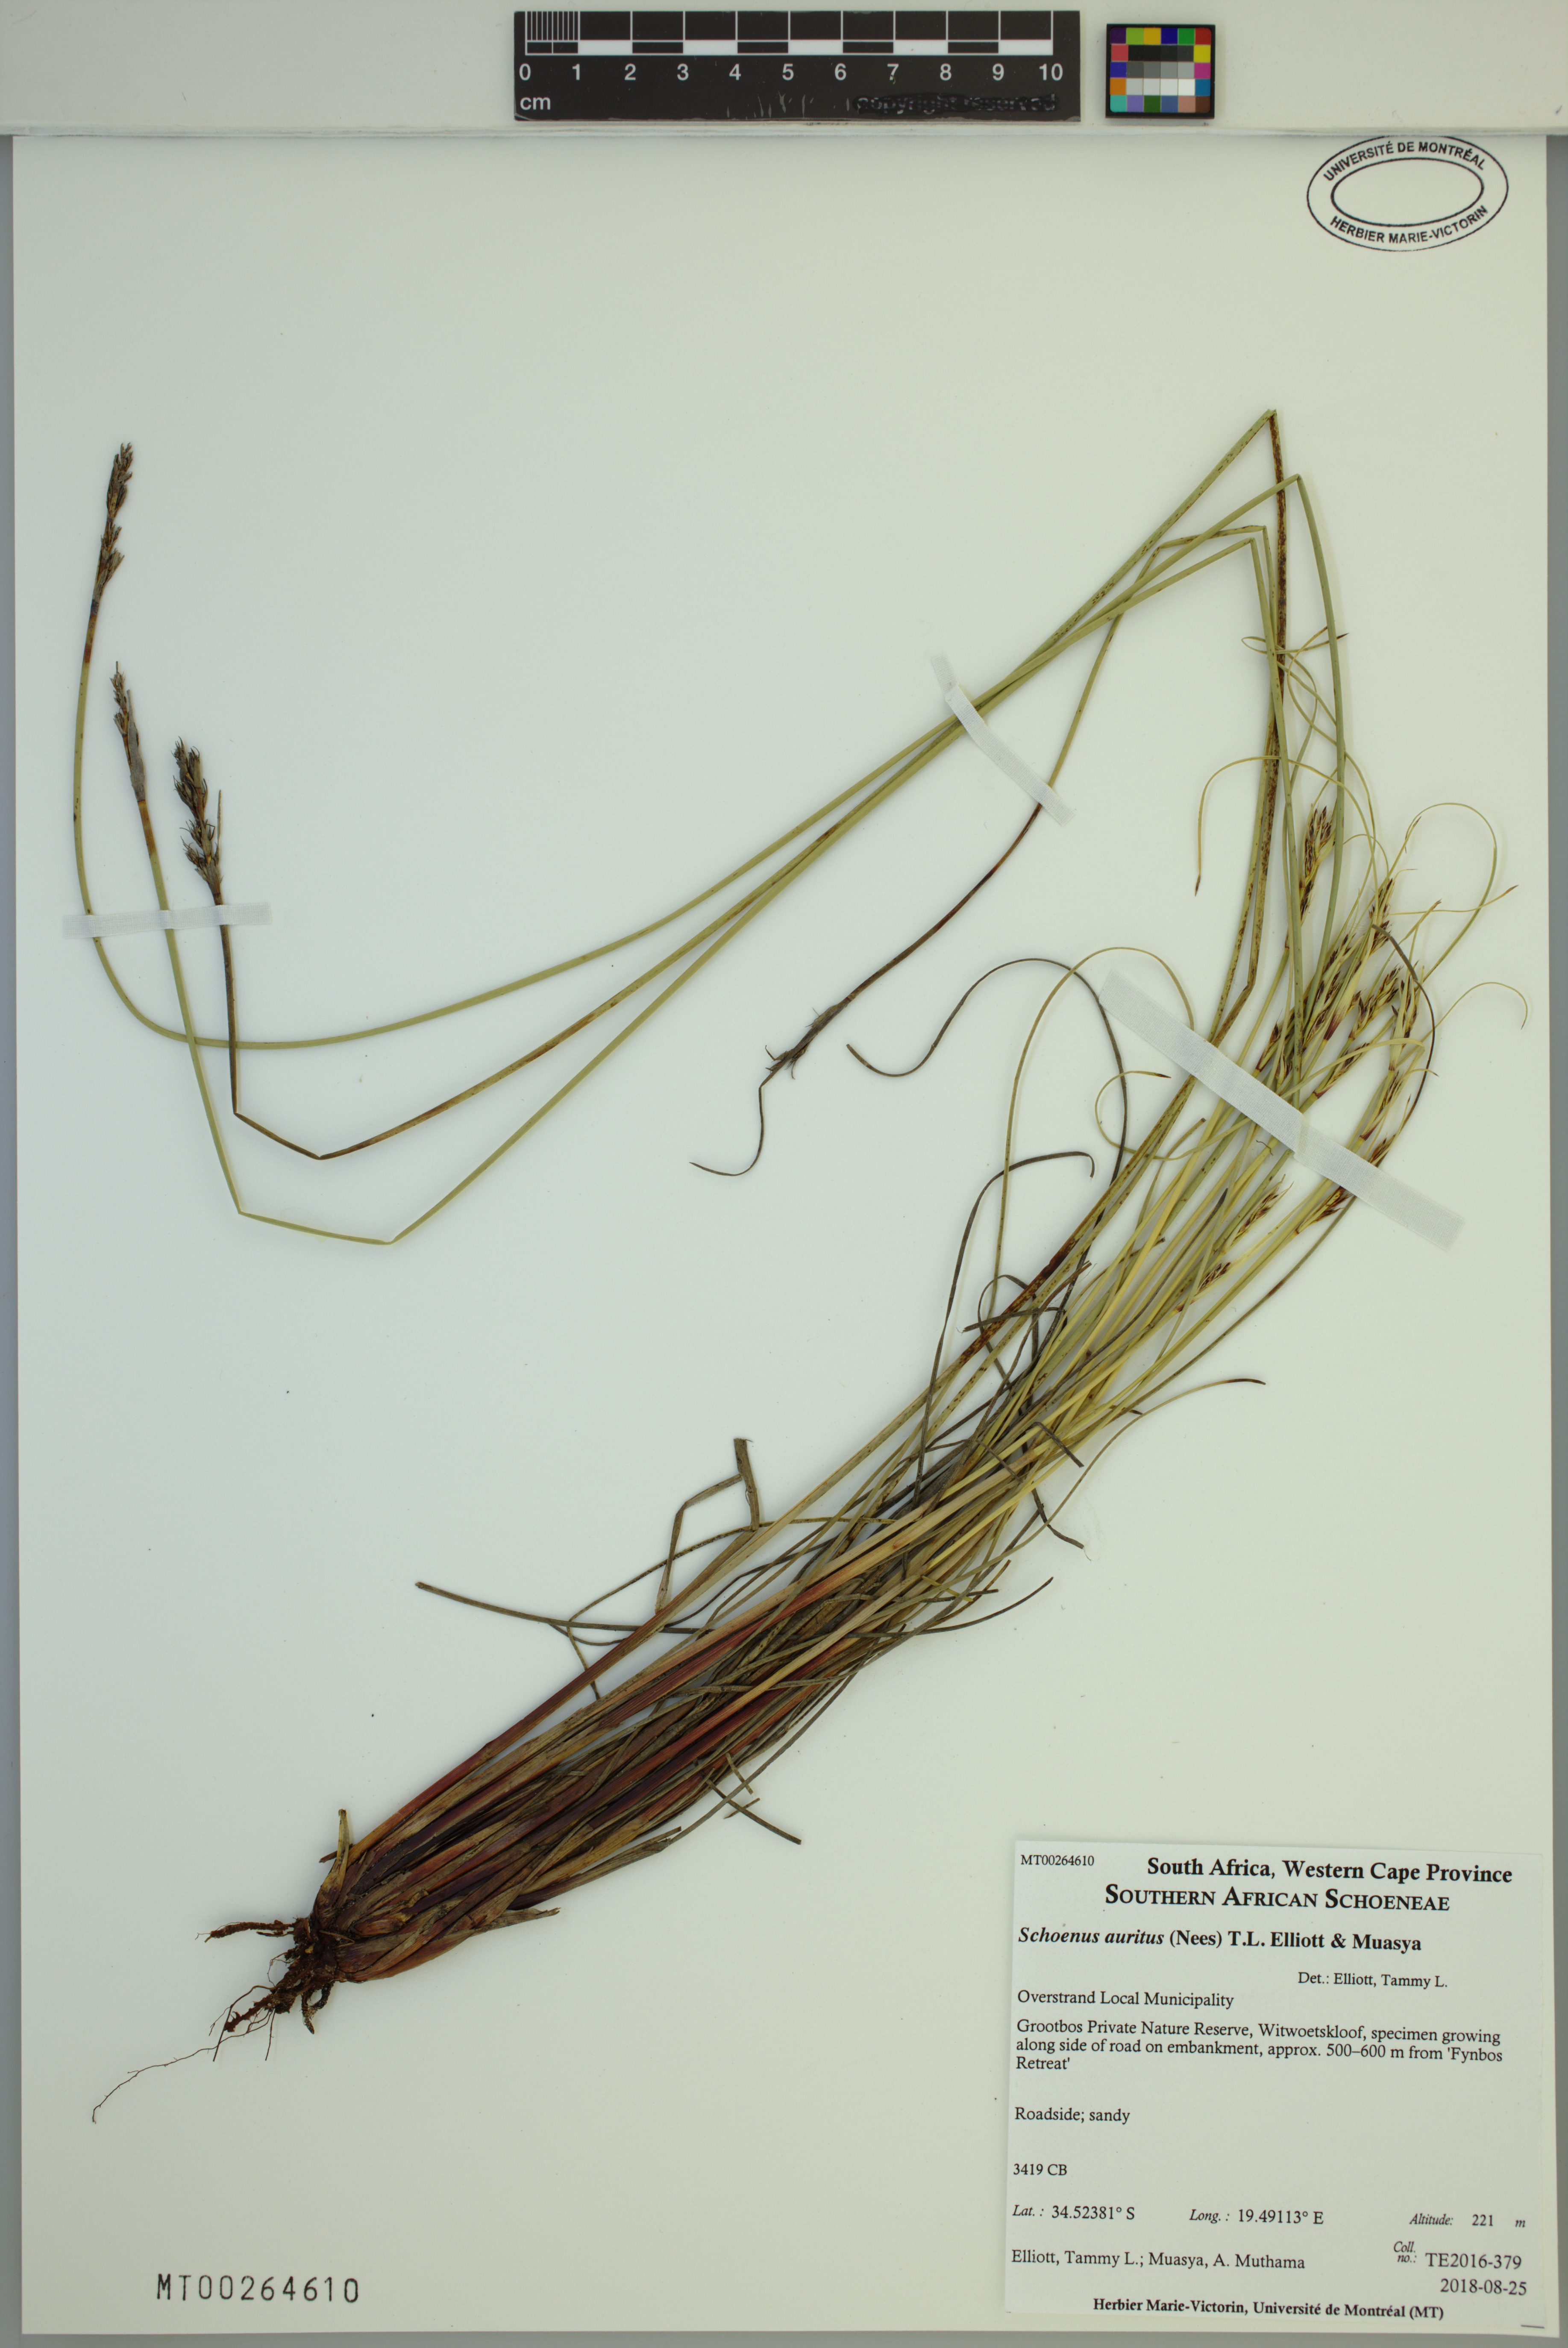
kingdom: Plantae
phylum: Tracheophyta
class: Liliopsida
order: Poales
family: Cyperaceae
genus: Schoenus
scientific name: Schoenus auritus
